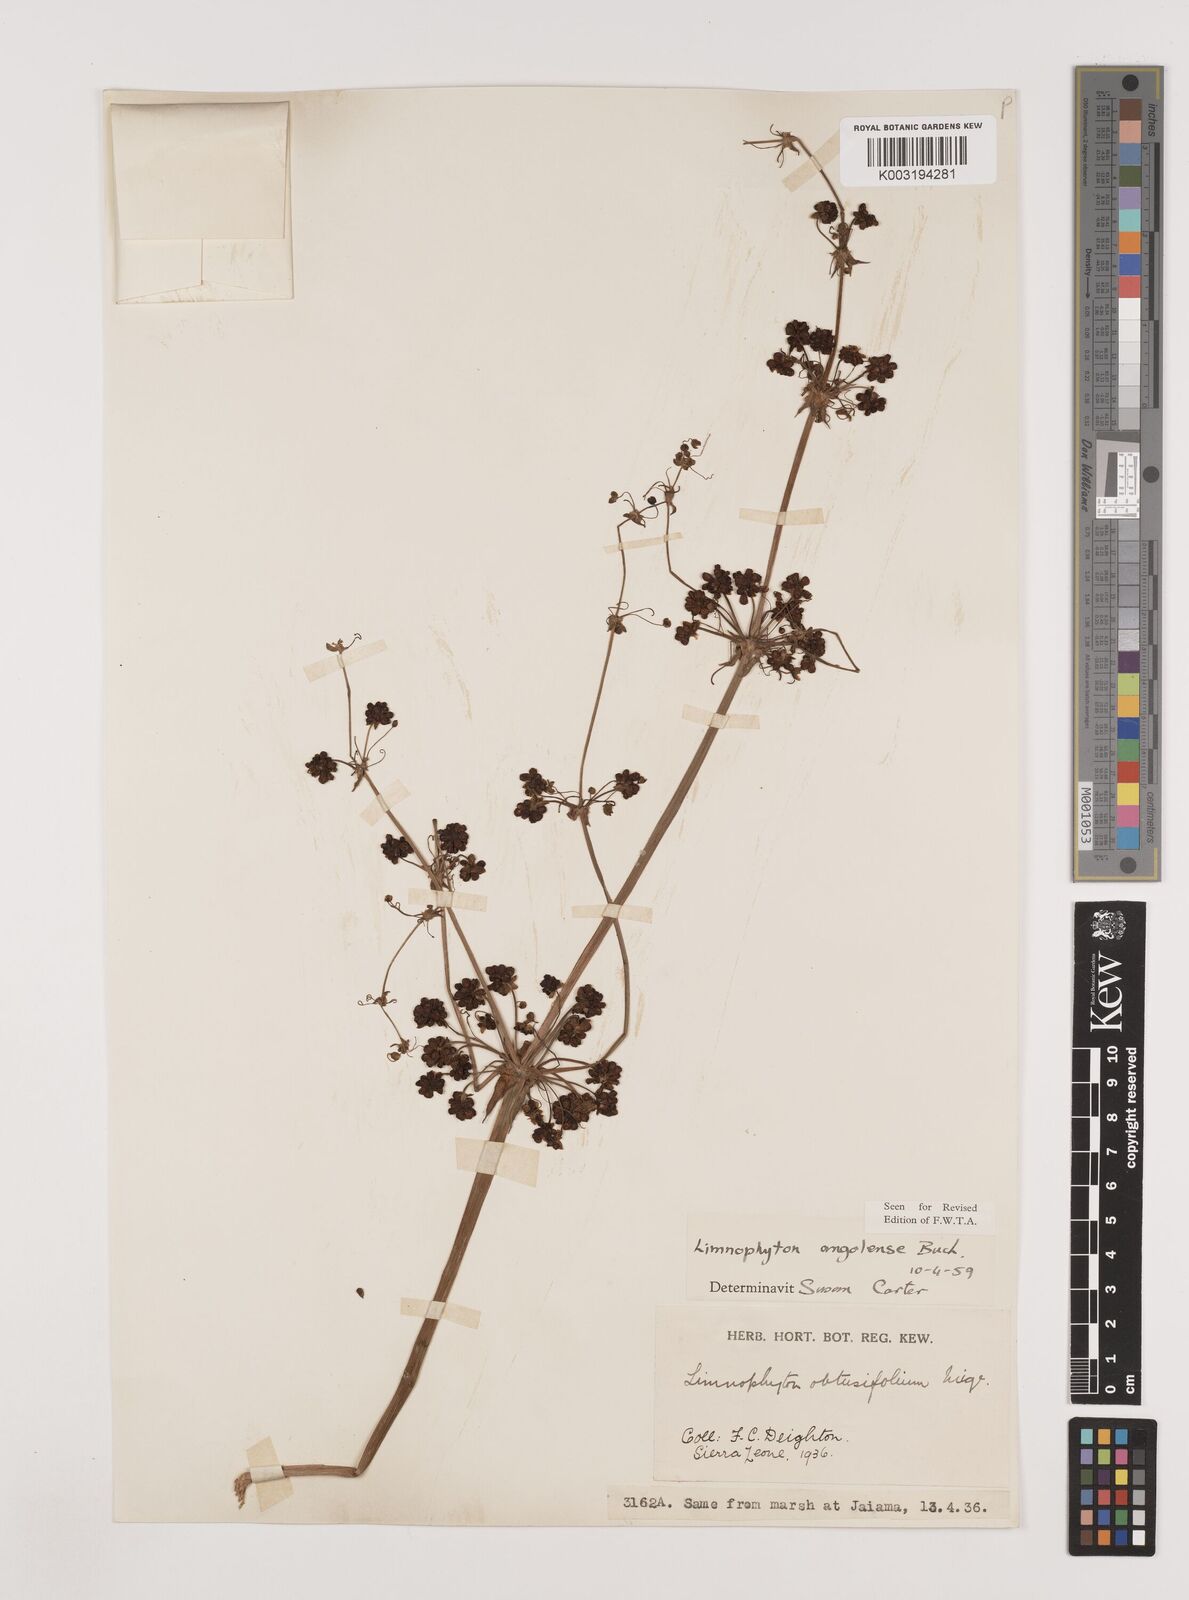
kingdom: Plantae
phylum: Tracheophyta
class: Liliopsida
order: Alismatales
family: Alismataceae
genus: Limnophyton
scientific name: Limnophyton angolense
